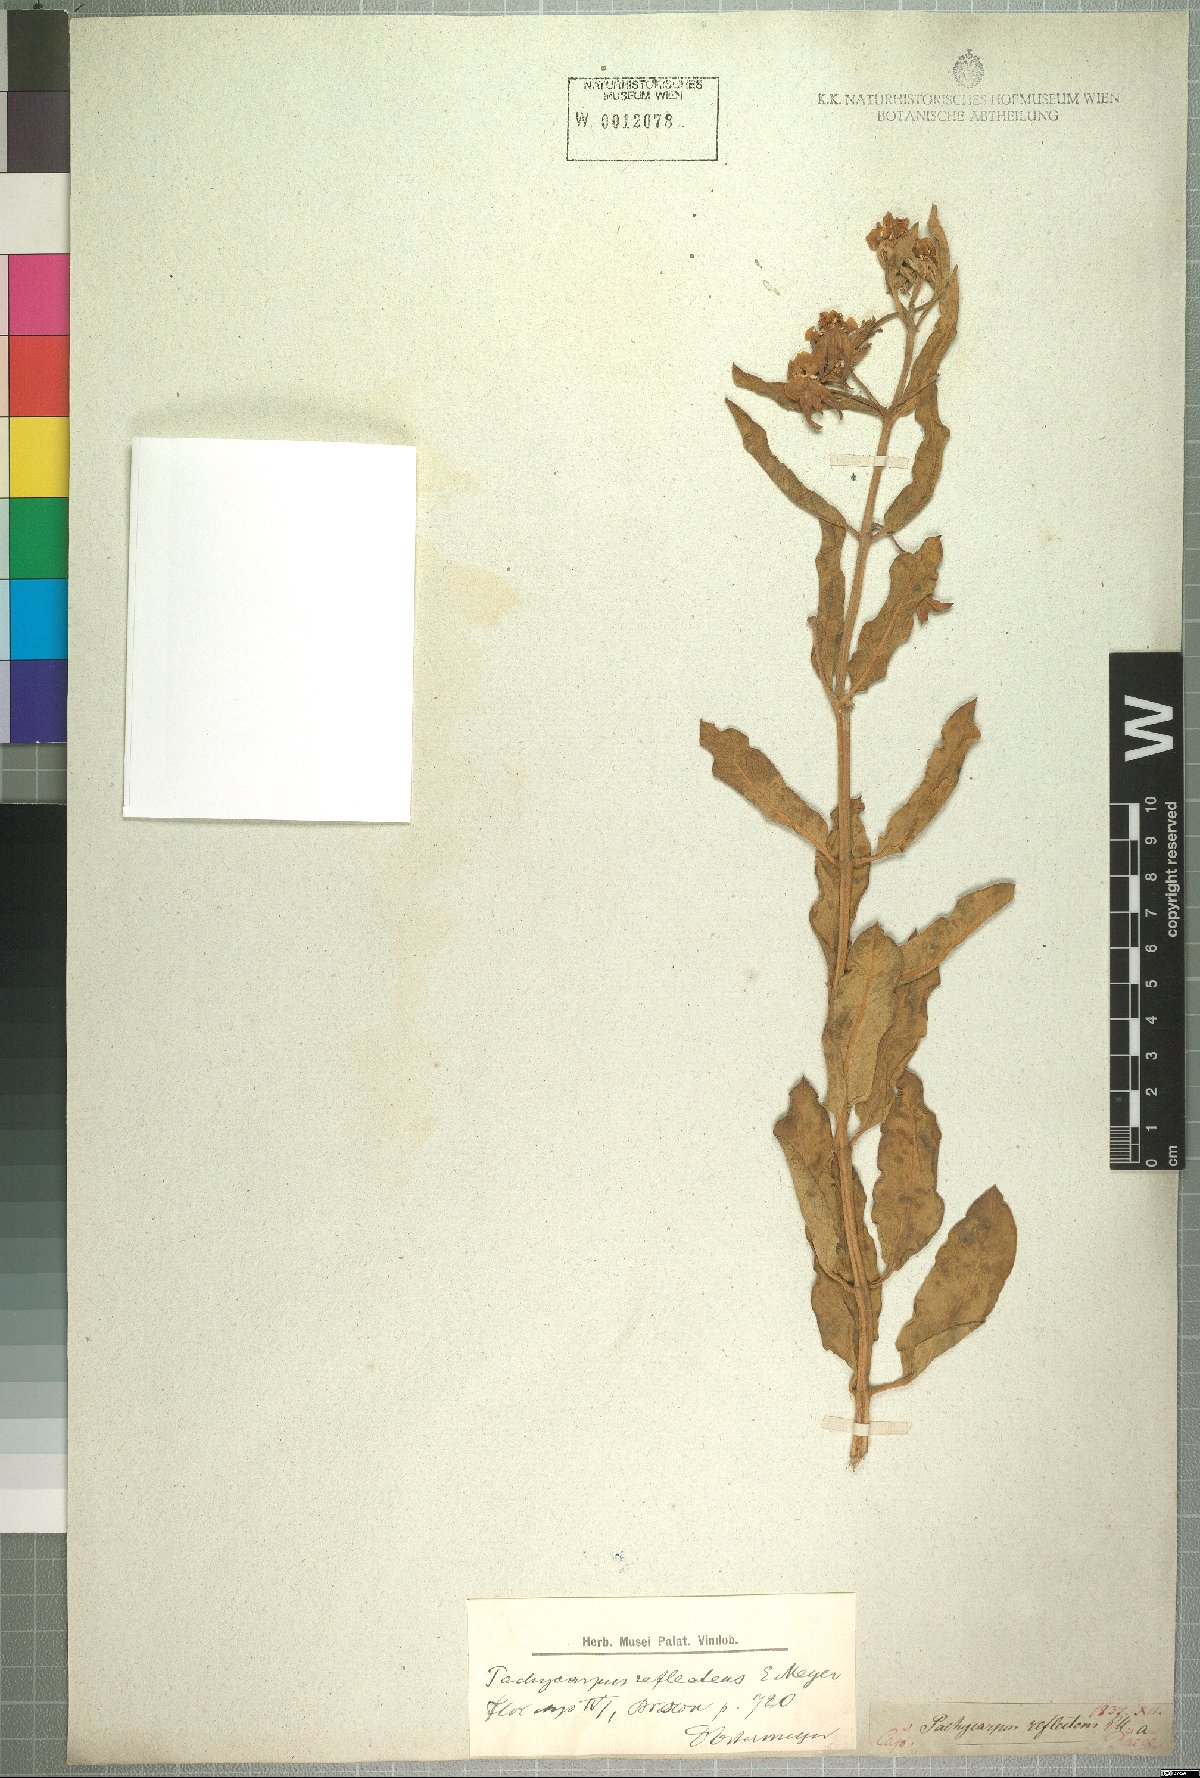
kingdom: Plantae
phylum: Tracheophyta
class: Magnoliopsida
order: Gentianales
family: Apocynaceae
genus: Pachycarpus
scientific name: Pachycarpus reflectens
